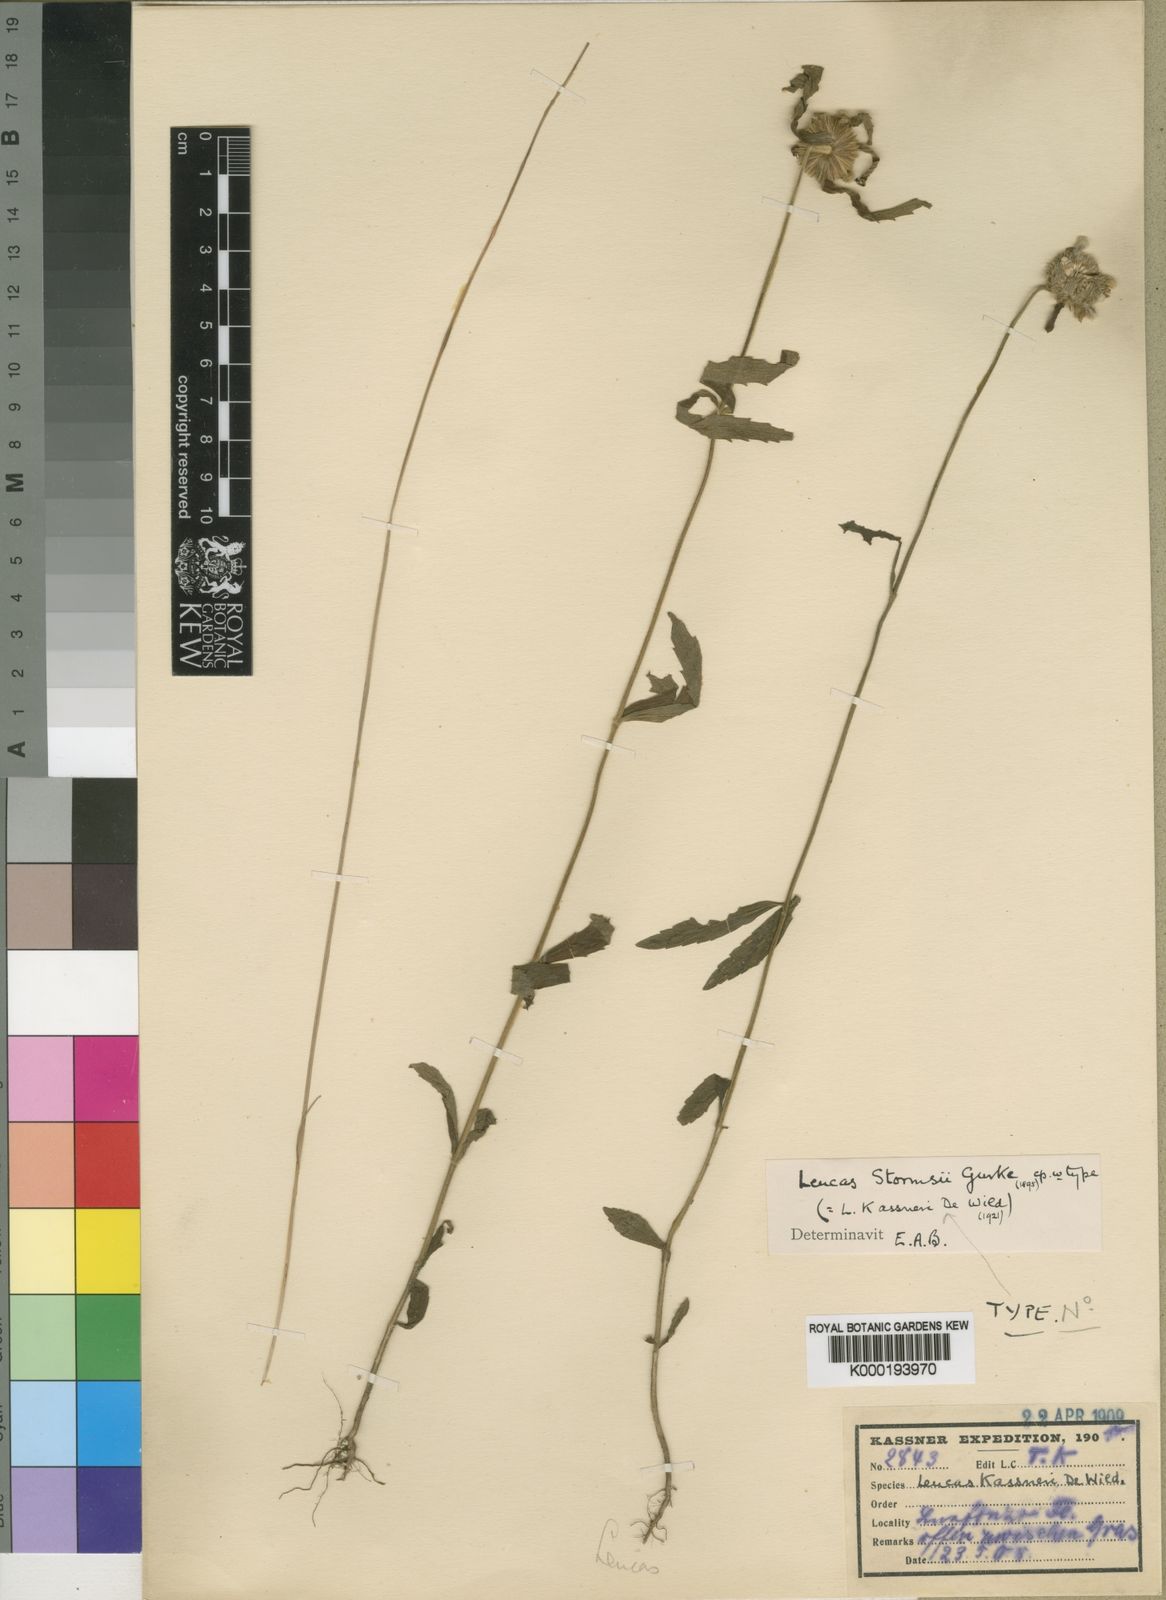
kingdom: Plantae
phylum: Tracheophyta
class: Magnoliopsida
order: Lamiales
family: Lamiaceae
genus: Leucas
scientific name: Leucas
